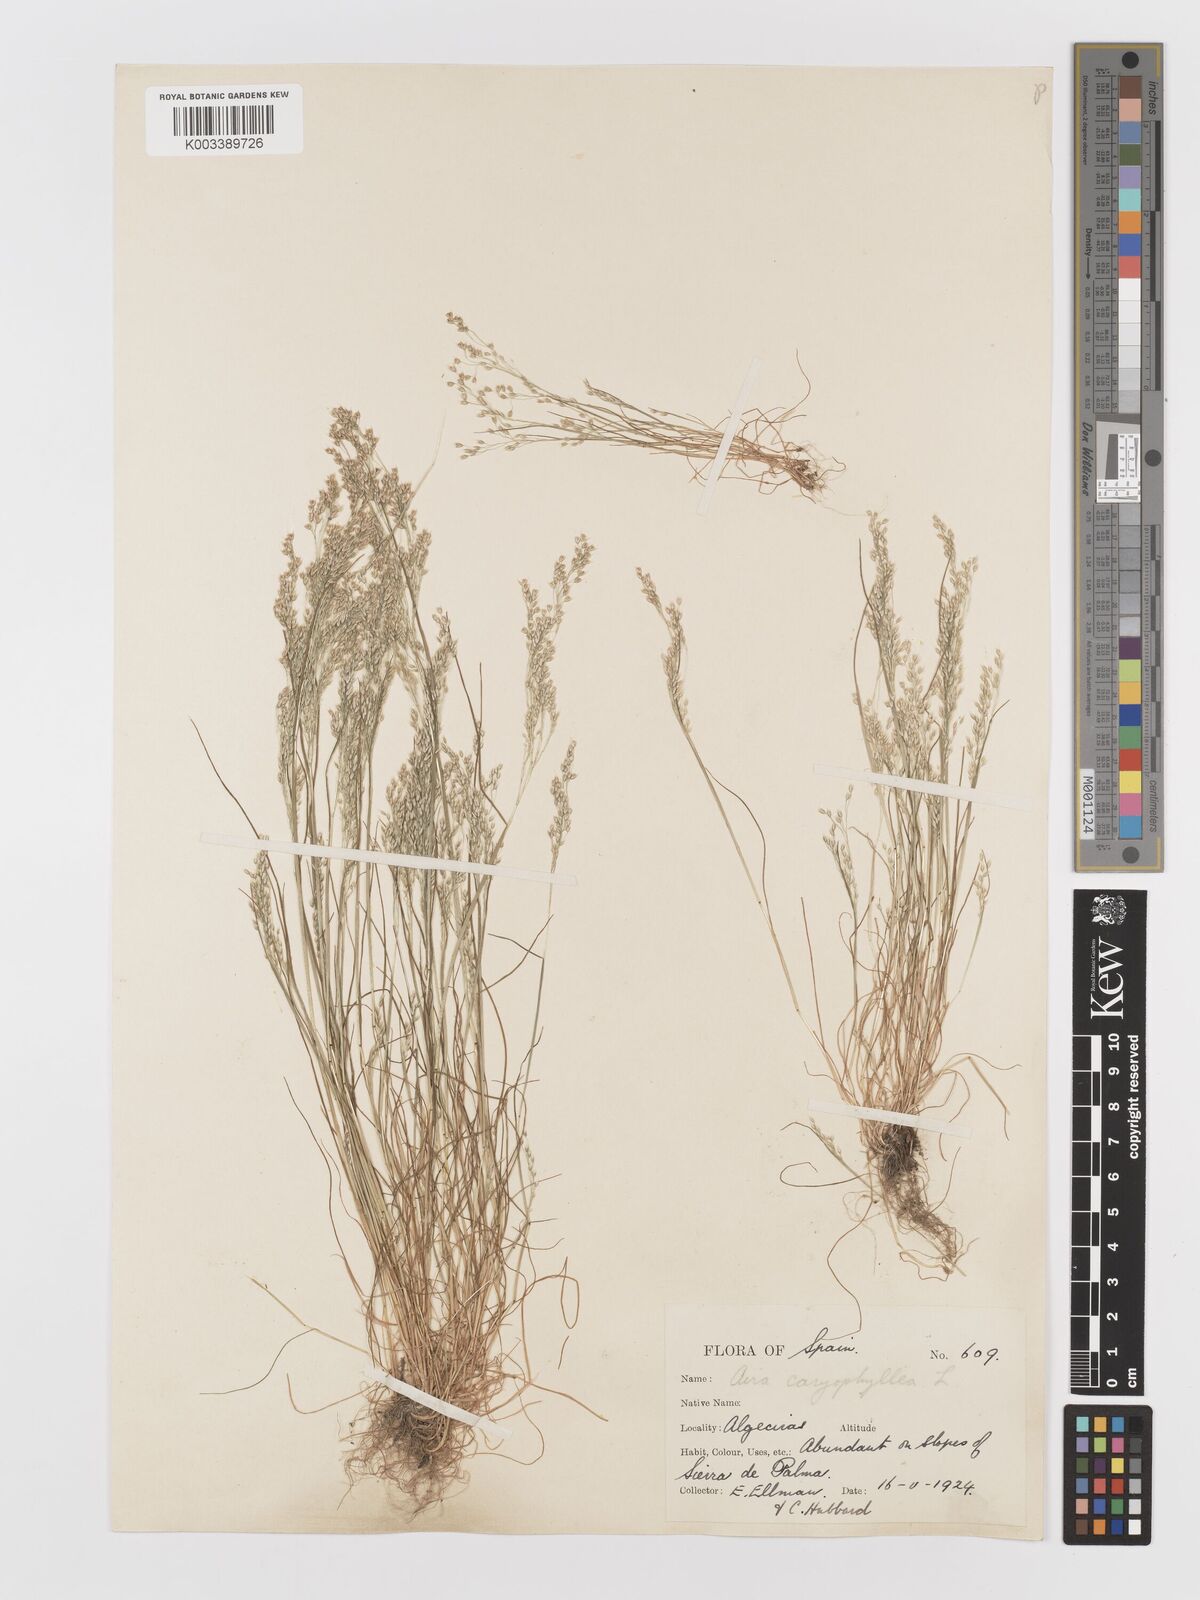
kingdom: Plantae
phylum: Tracheophyta
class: Liliopsida
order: Poales
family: Poaceae
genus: Aira
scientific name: Aira caryophyllea
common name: Silver hairgrass
